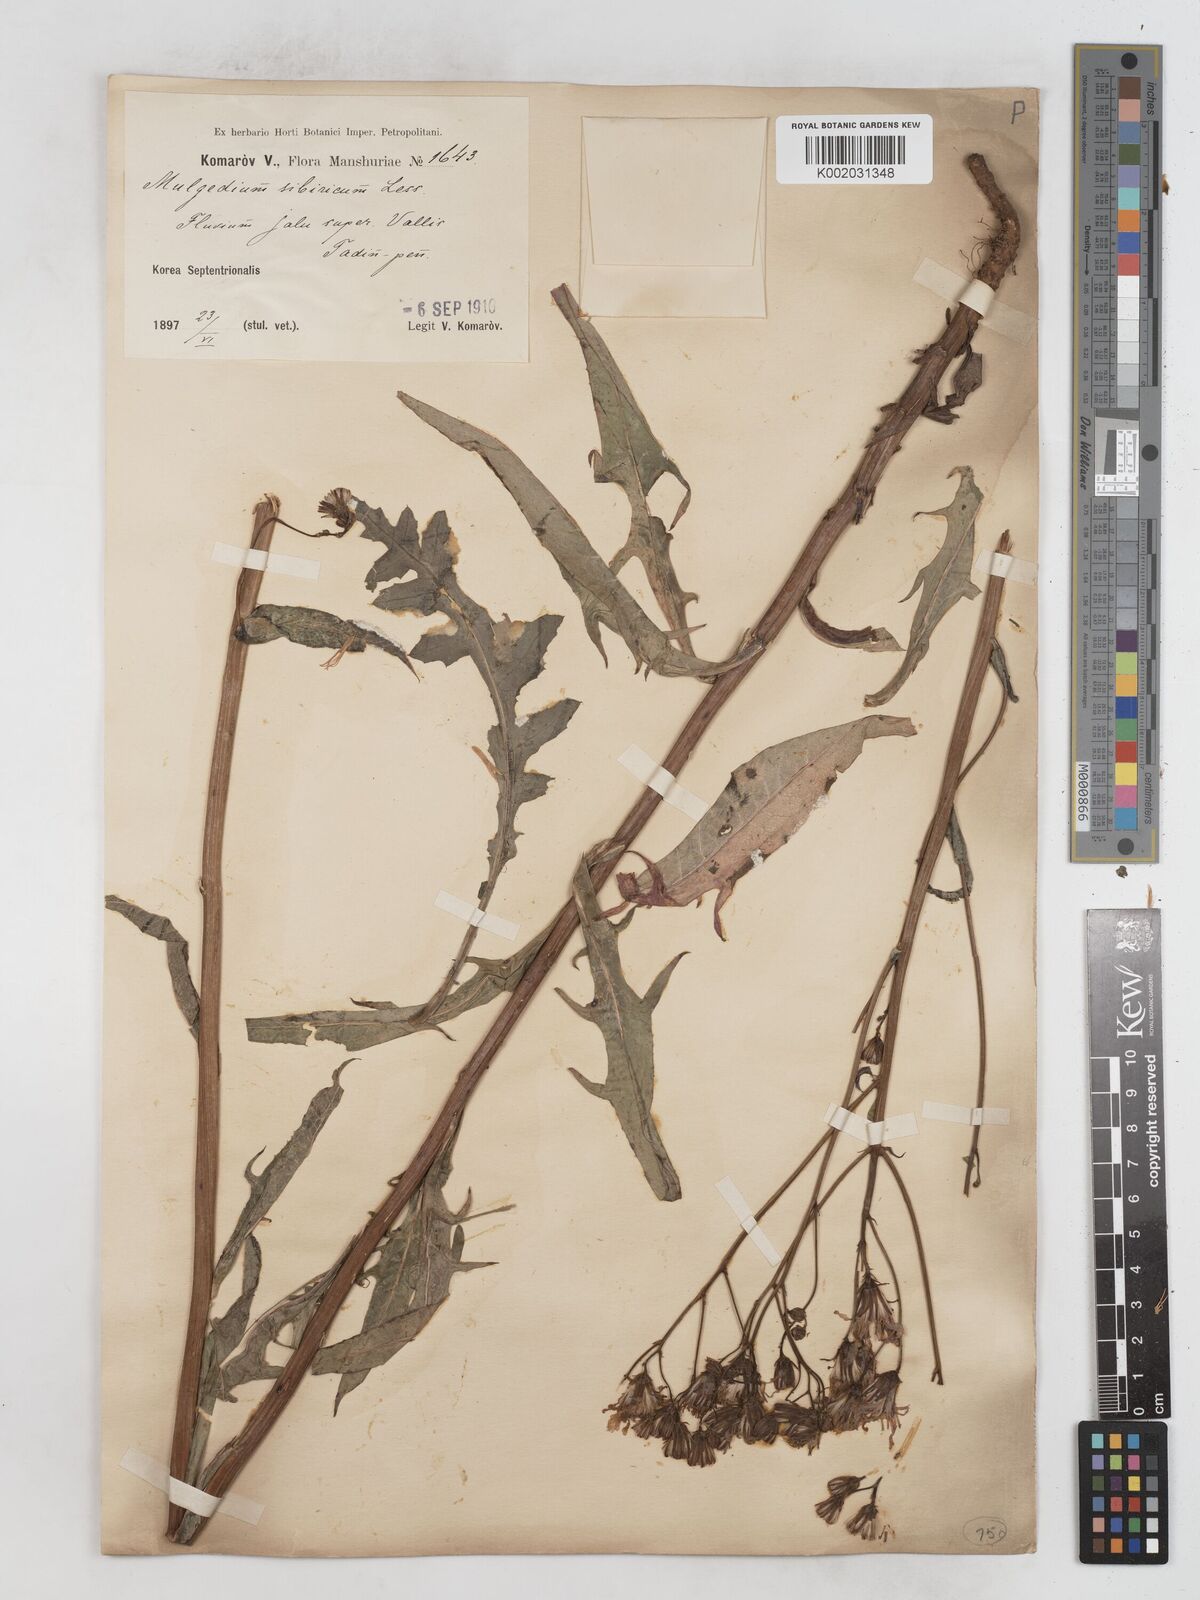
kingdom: Plantae
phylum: Tracheophyta
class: Magnoliopsida
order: Asterales
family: Asteraceae
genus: Lactuca
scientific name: Lactuca sibirica
